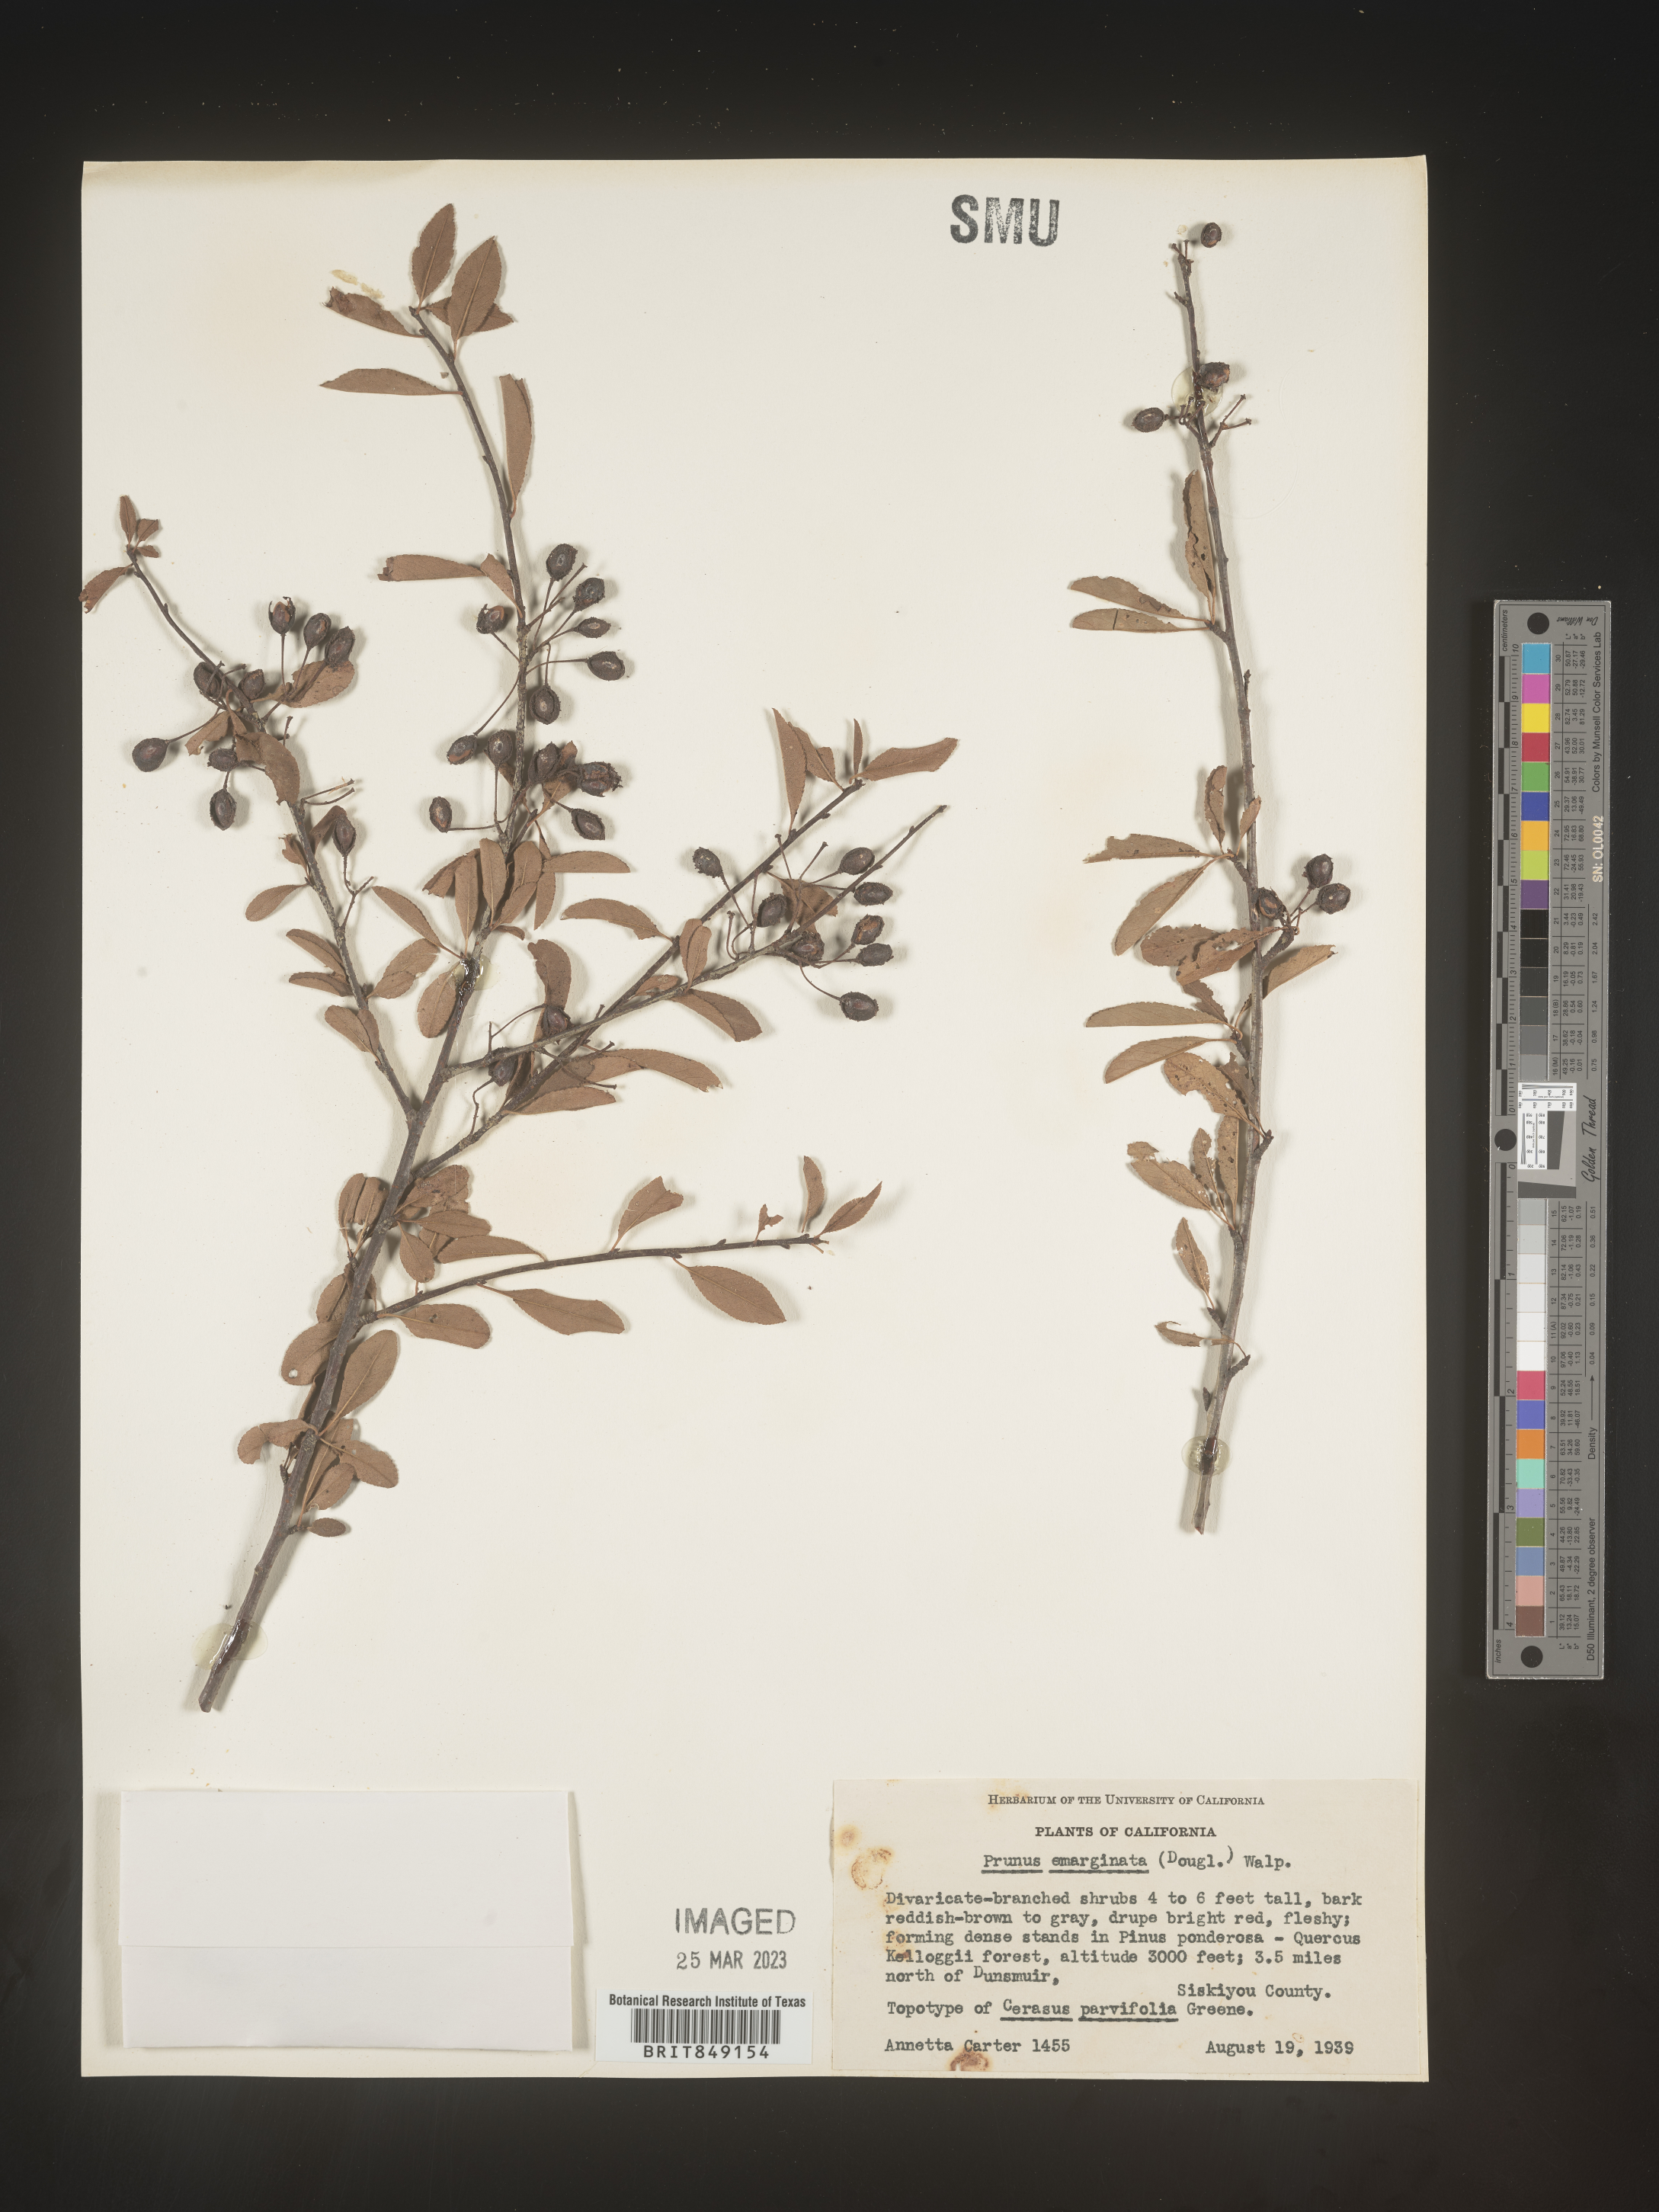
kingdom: Plantae
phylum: Tracheophyta
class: Magnoliopsida
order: Rosales
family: Rosaceae
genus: Prunus
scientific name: Prunus emarginata
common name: Bitter cherry
